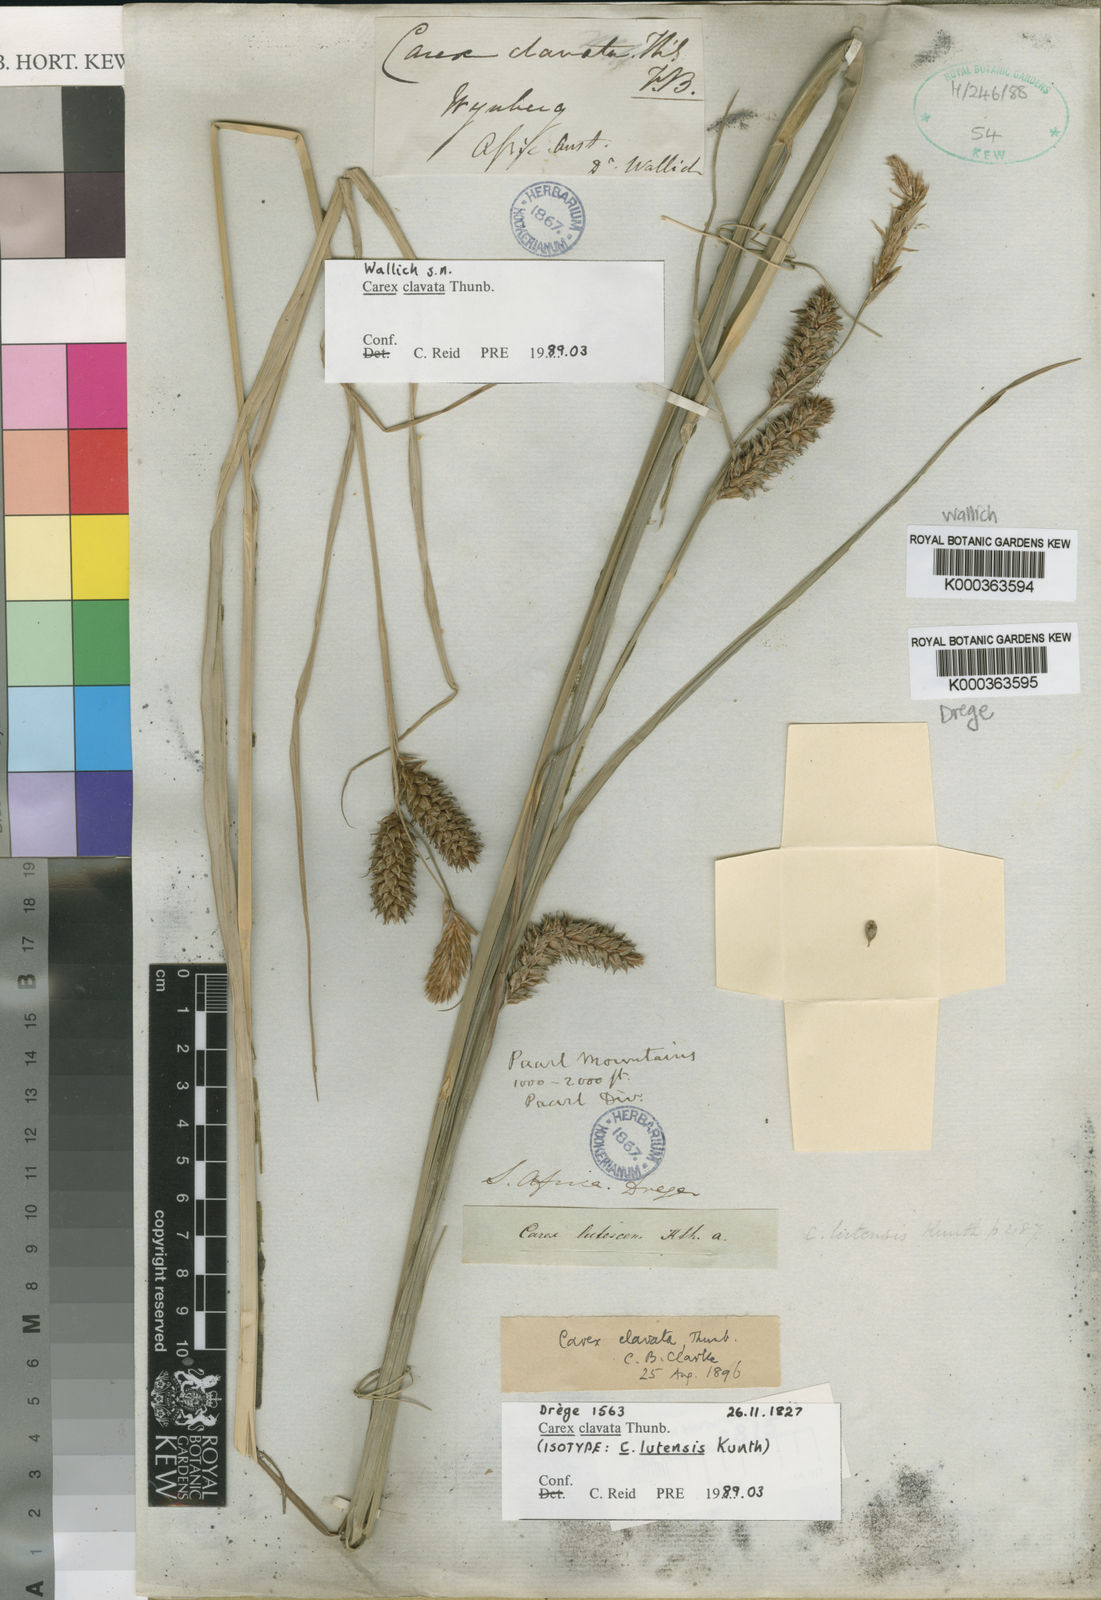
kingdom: Plantae
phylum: Tracheophyta
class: Liliopsida
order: Poales
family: Cyperaceae
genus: Carex
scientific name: Carex clavata
